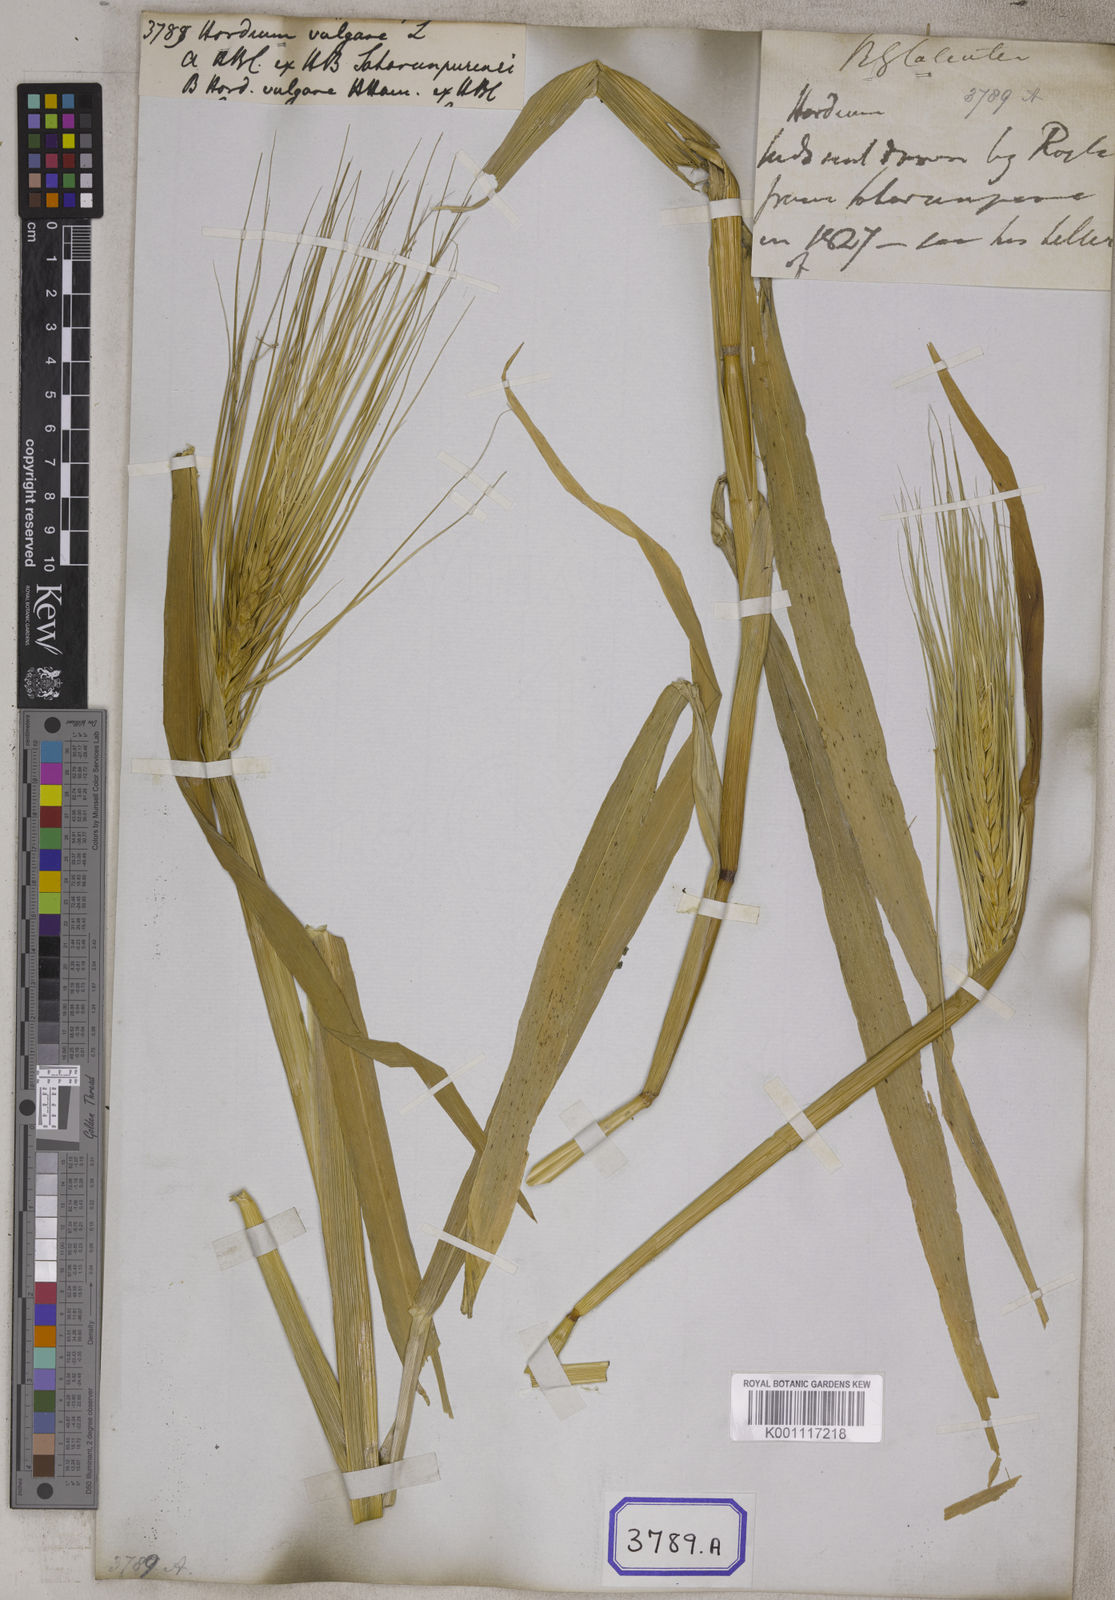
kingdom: Plantae
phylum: Tracheophyta
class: Liliopsida
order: Poales
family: Poaceae
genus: Hordeum
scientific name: Hordeum vulgare
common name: Common barley
